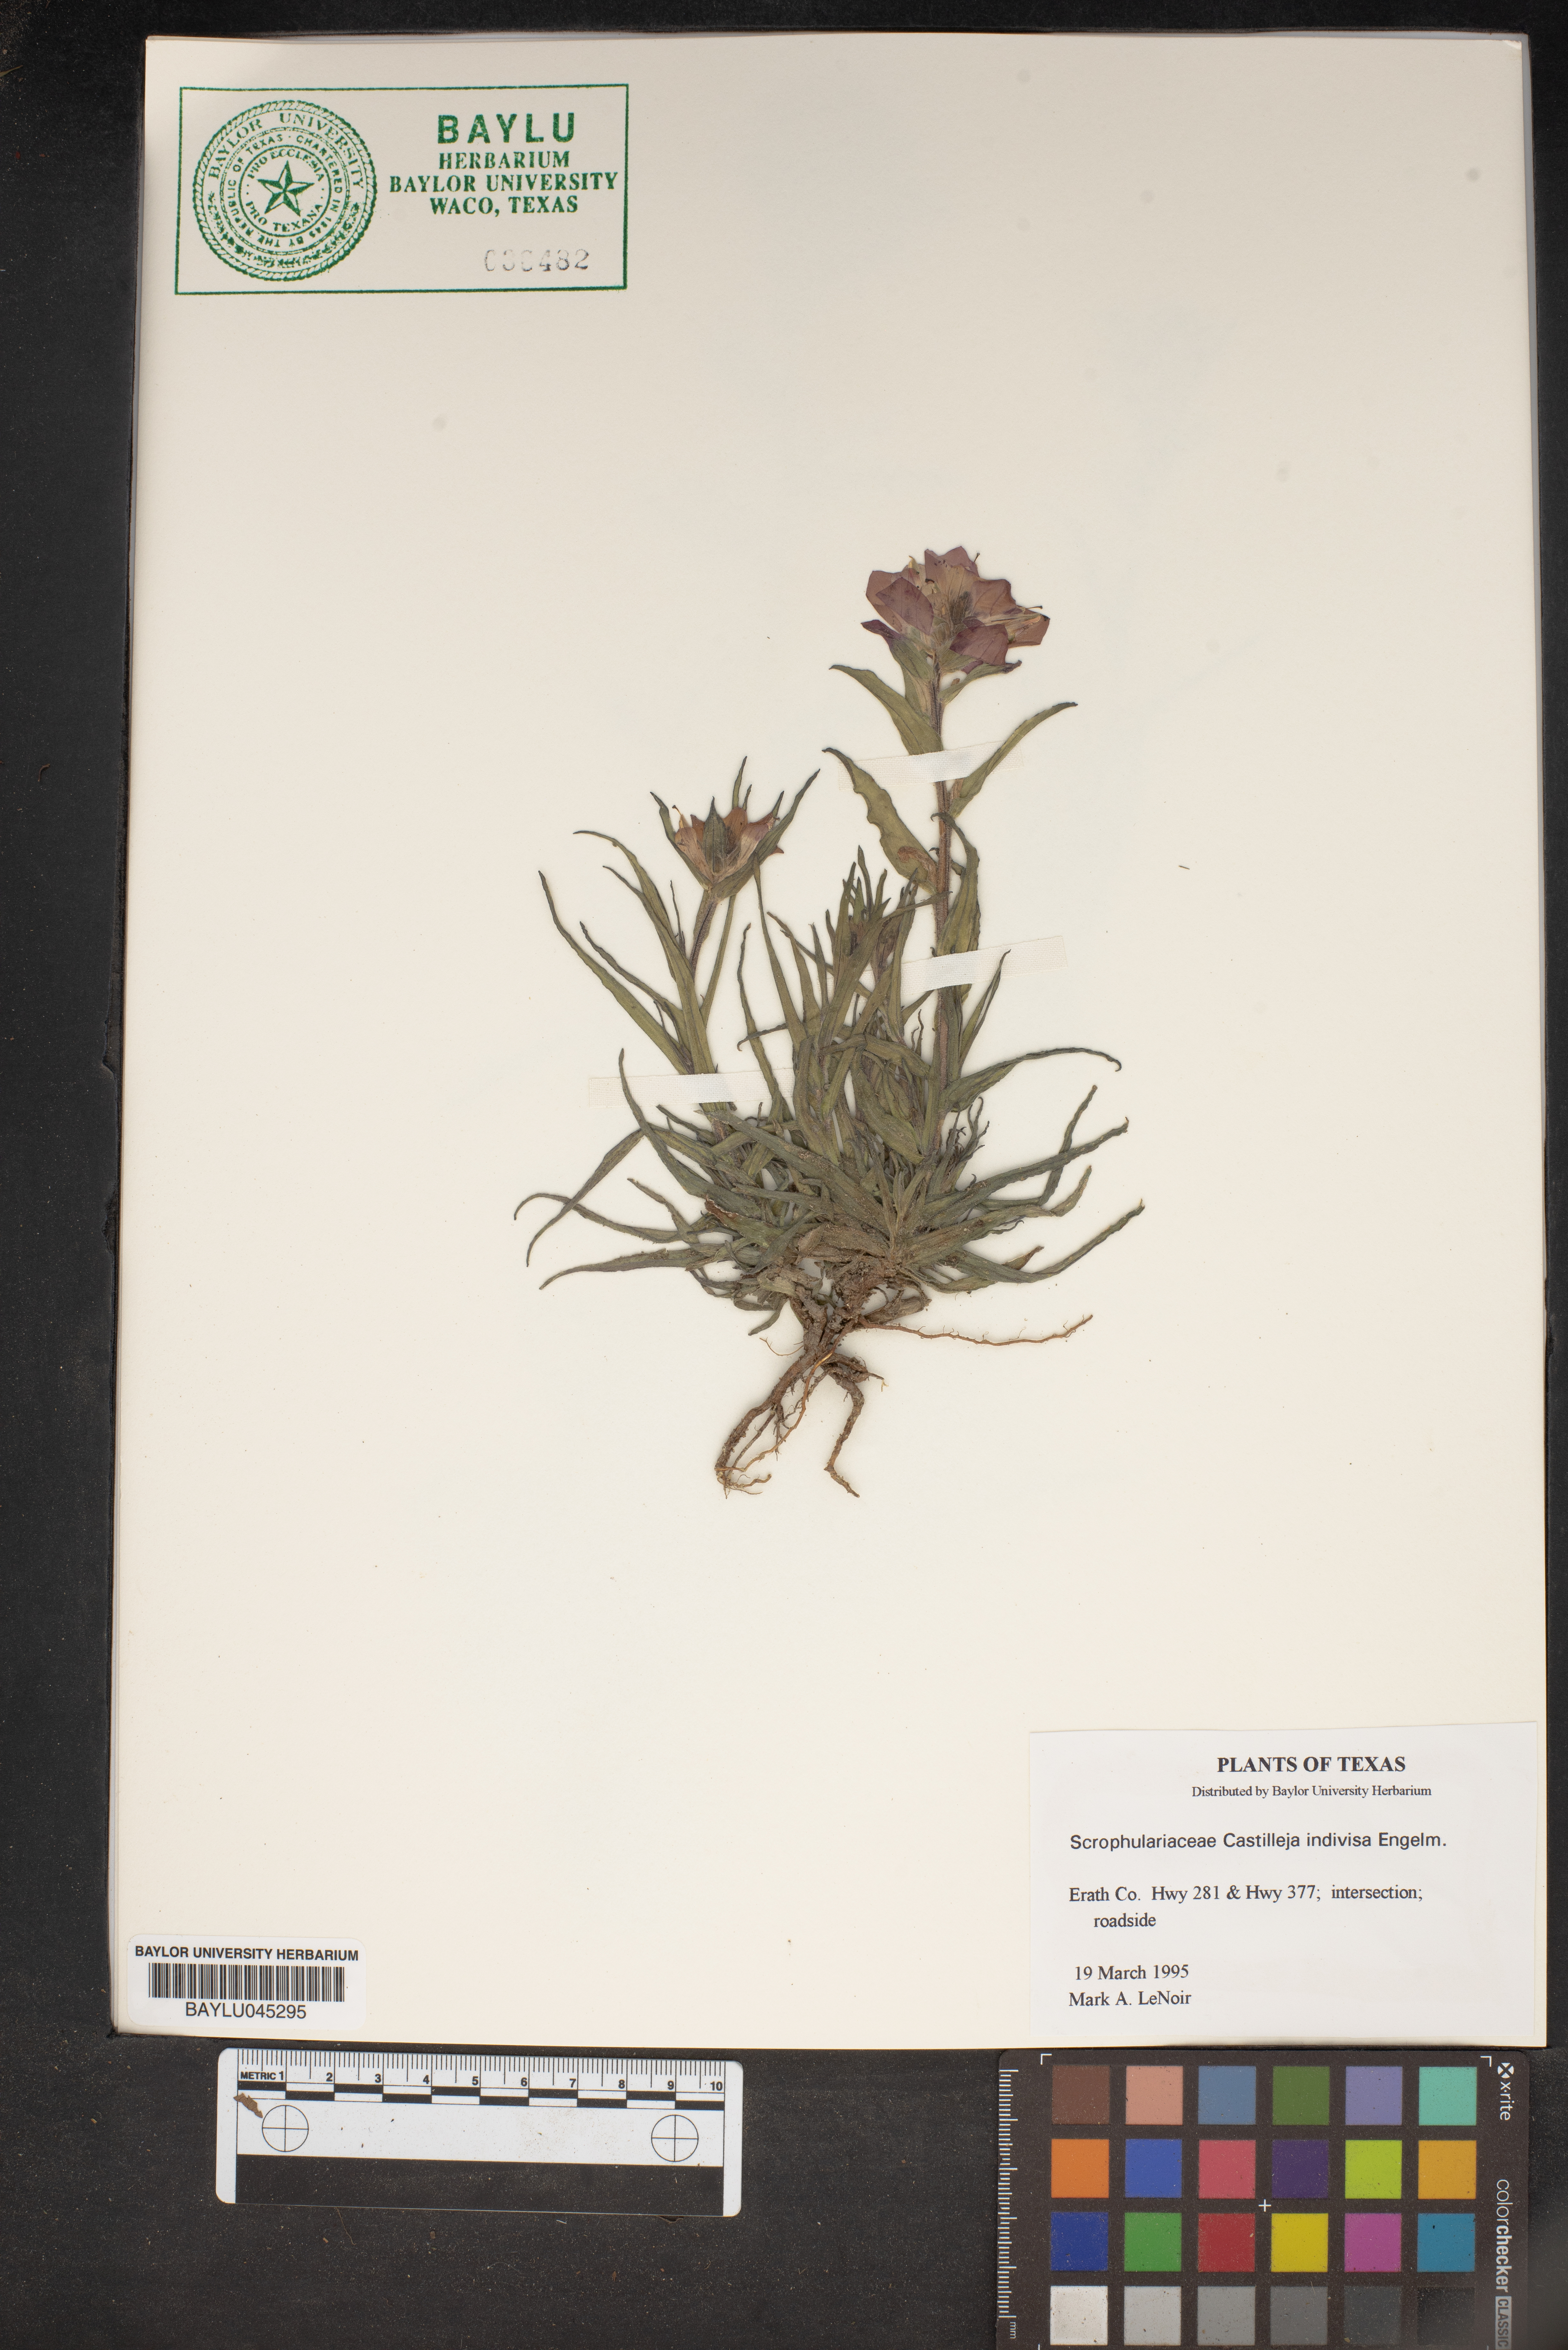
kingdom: Plantae
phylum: Tracheophyta
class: Magnoliopsida
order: Lamiales
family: Orobanchaceae
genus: Castilleja
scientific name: Castilleja indivisa
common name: Texas paintbrush
